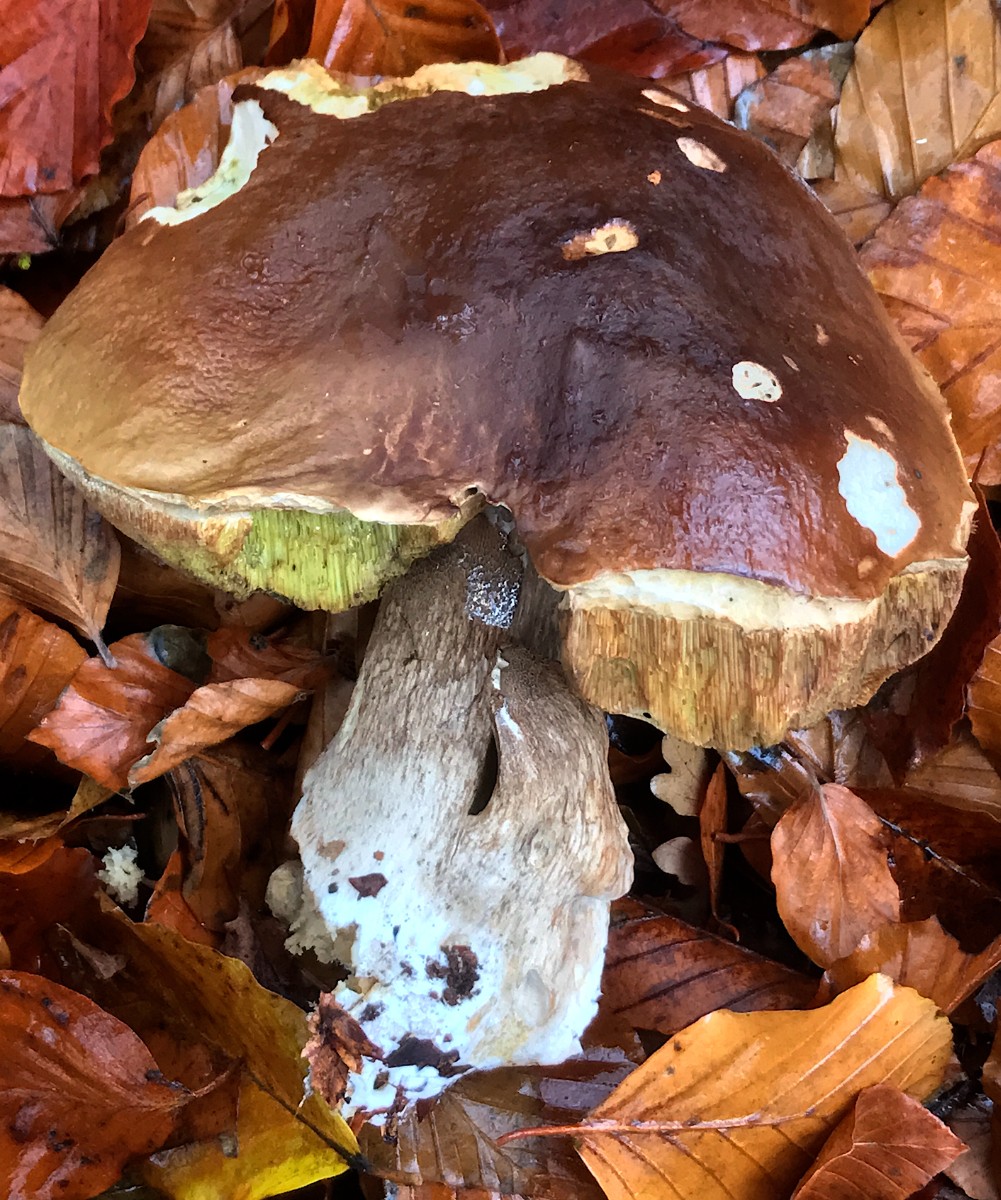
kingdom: Fungi
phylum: Basidiomycota
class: Agaricomycetes
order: Boletales
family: Boletaceae
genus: Boletus
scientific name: Boletus edulis
